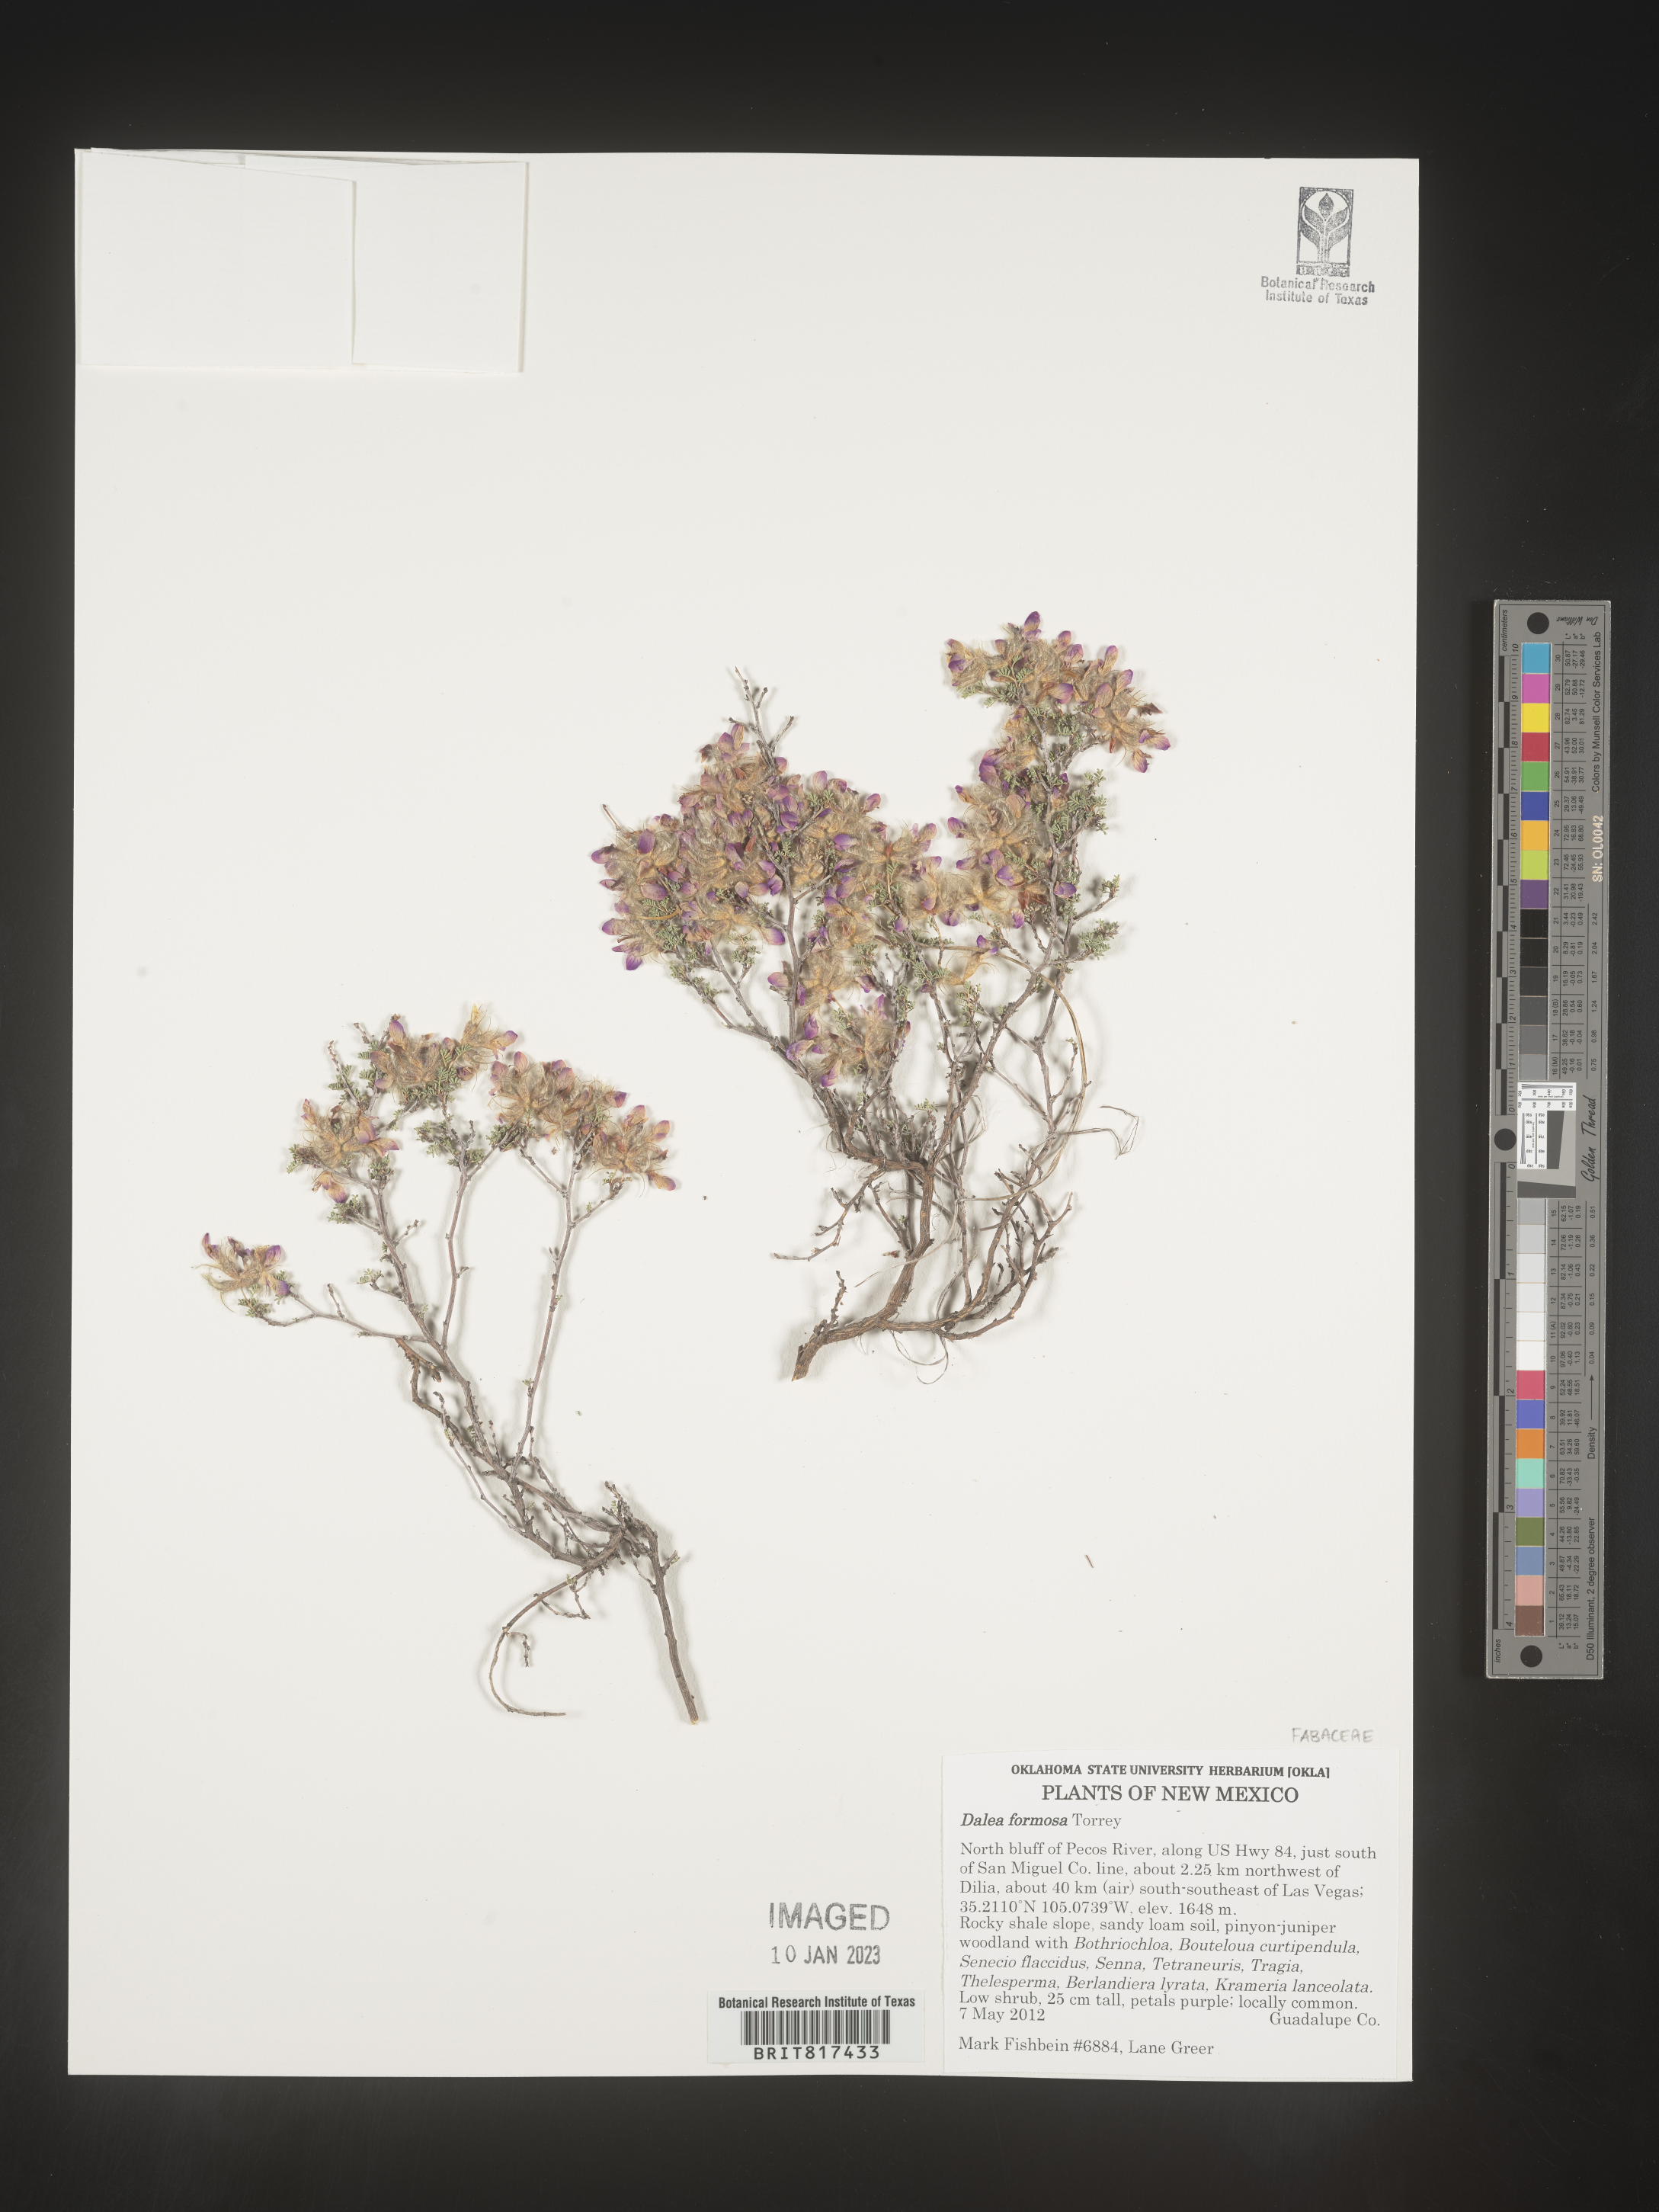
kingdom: Plantae
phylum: Tracheophyta
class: Magnoliopsida
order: Fabales
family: Fabaceae
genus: Dalea
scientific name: Dalea formosa
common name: Feather-plume dalea
